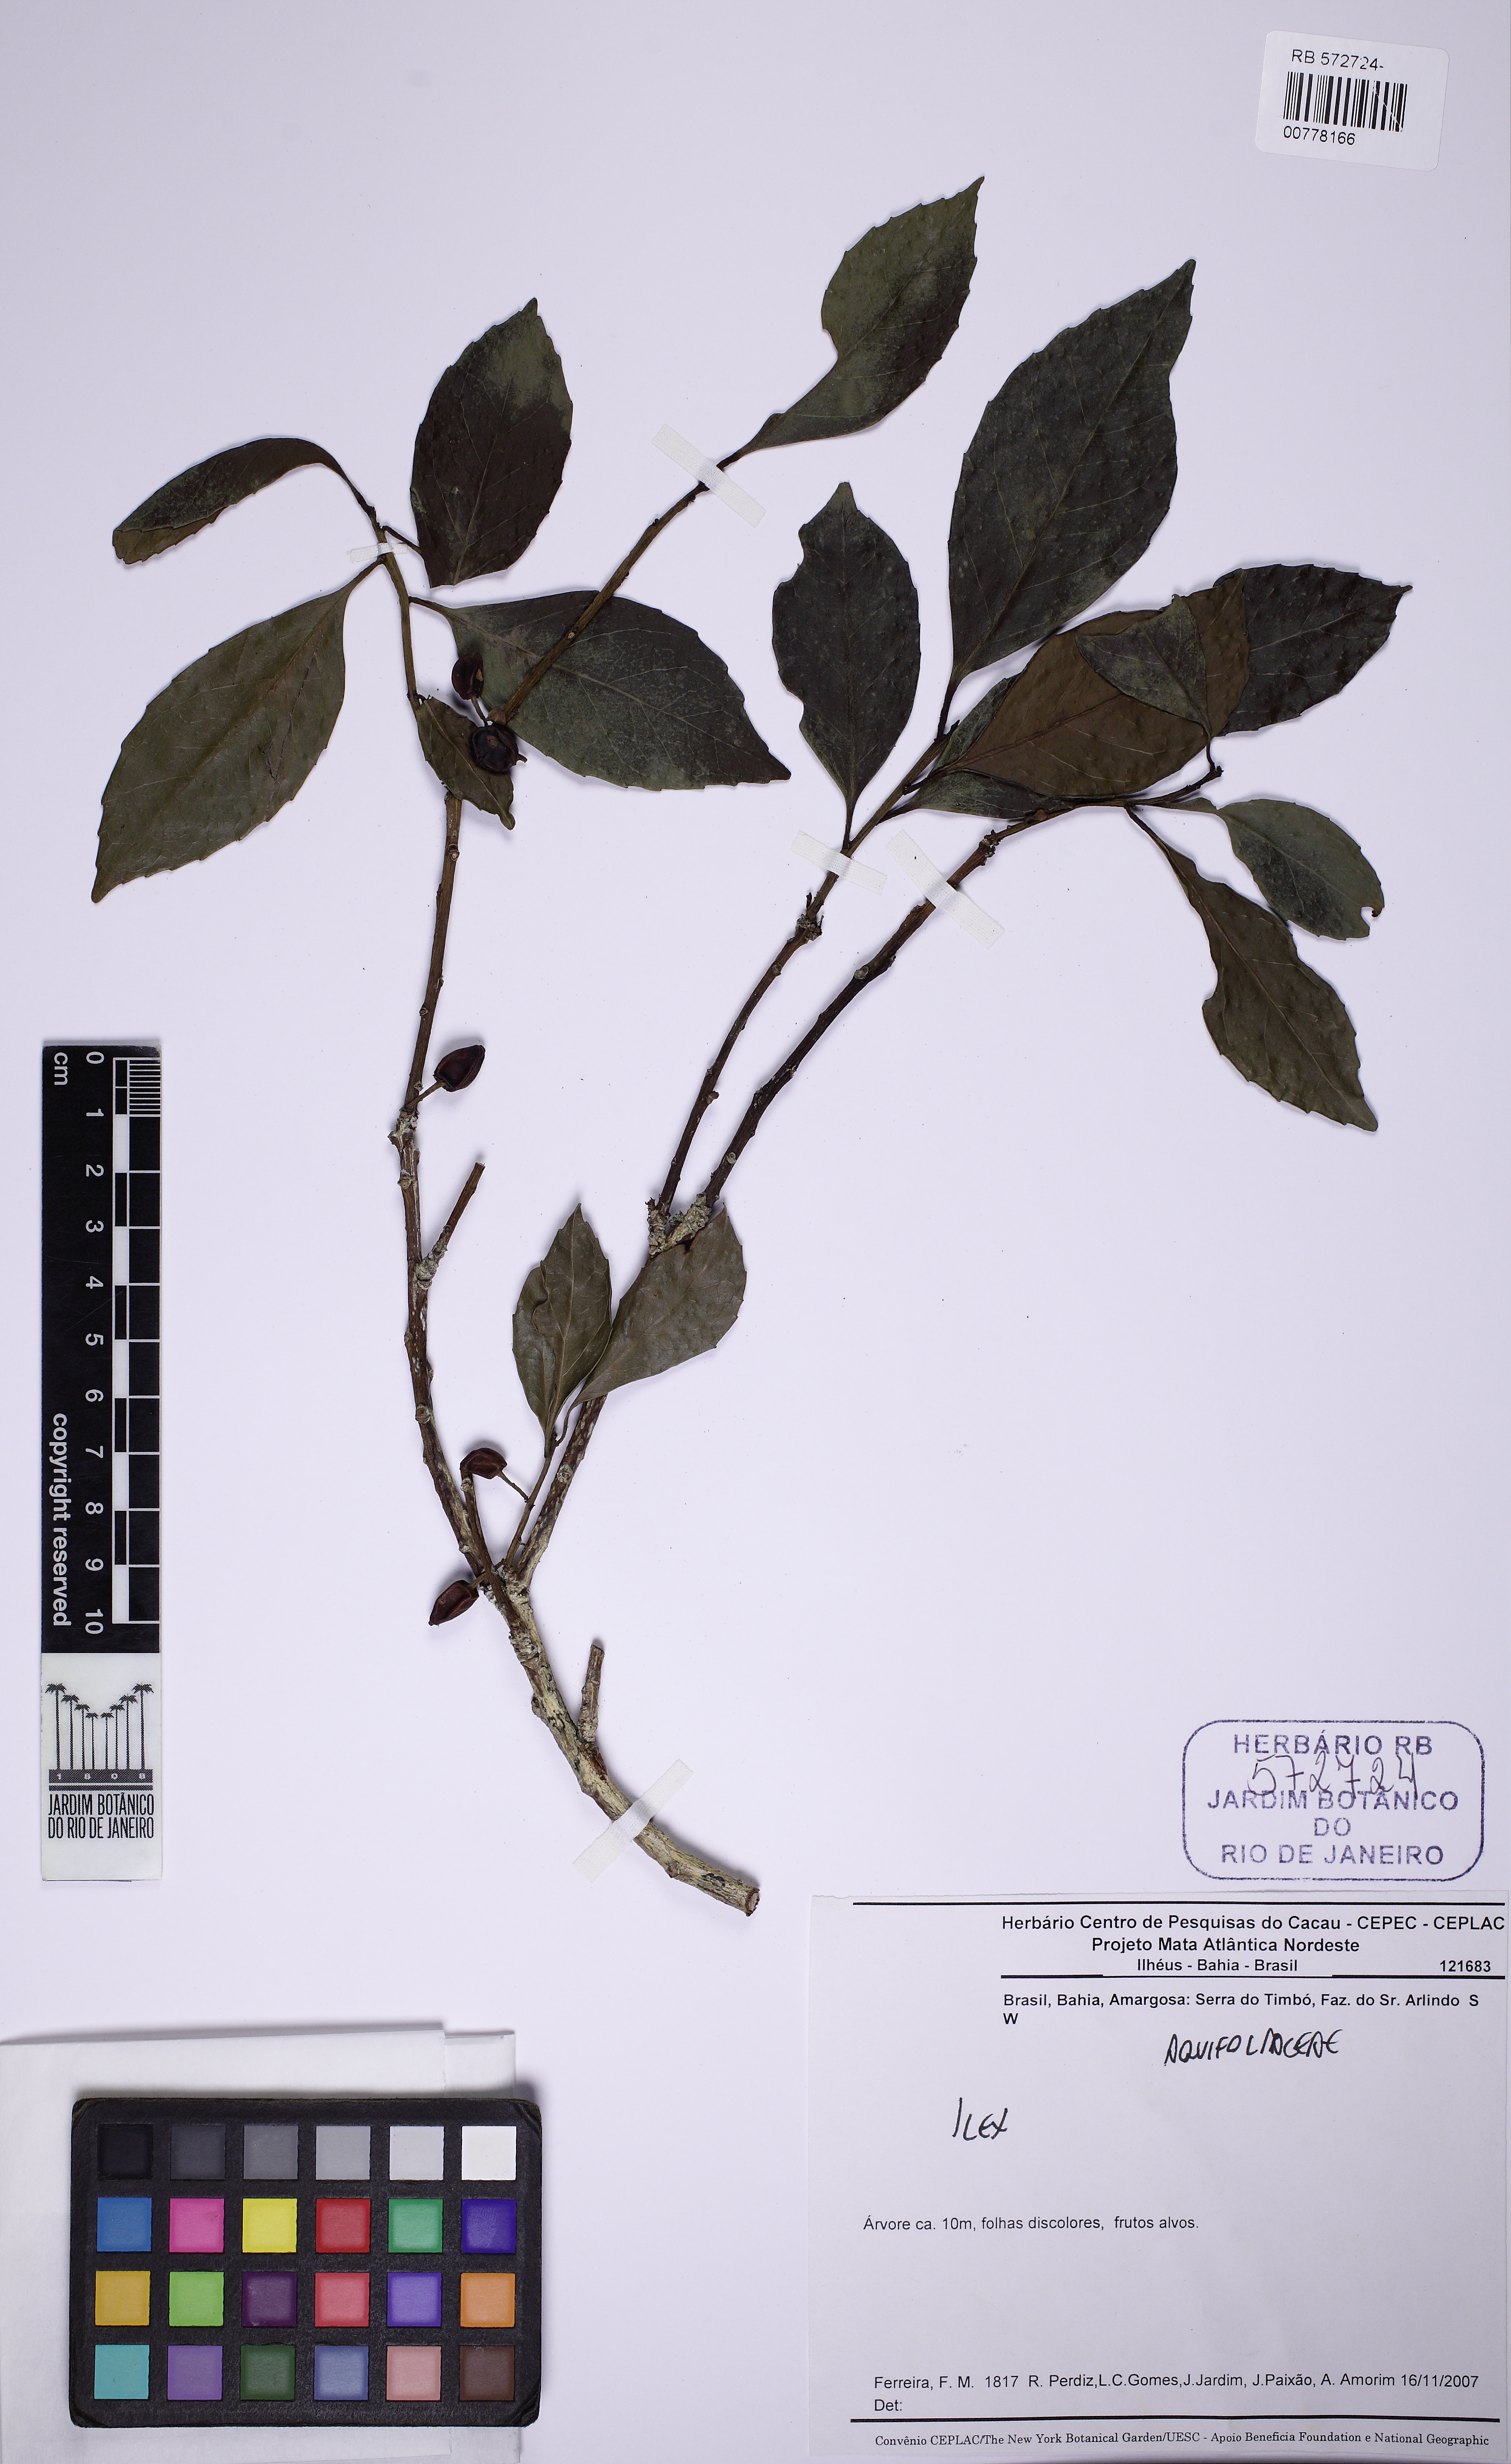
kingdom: Plantae
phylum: Tracheophyta
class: Magnoliopsida
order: Aquifoliales
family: Aquifoliaceae
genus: Ilex
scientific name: Ilex
